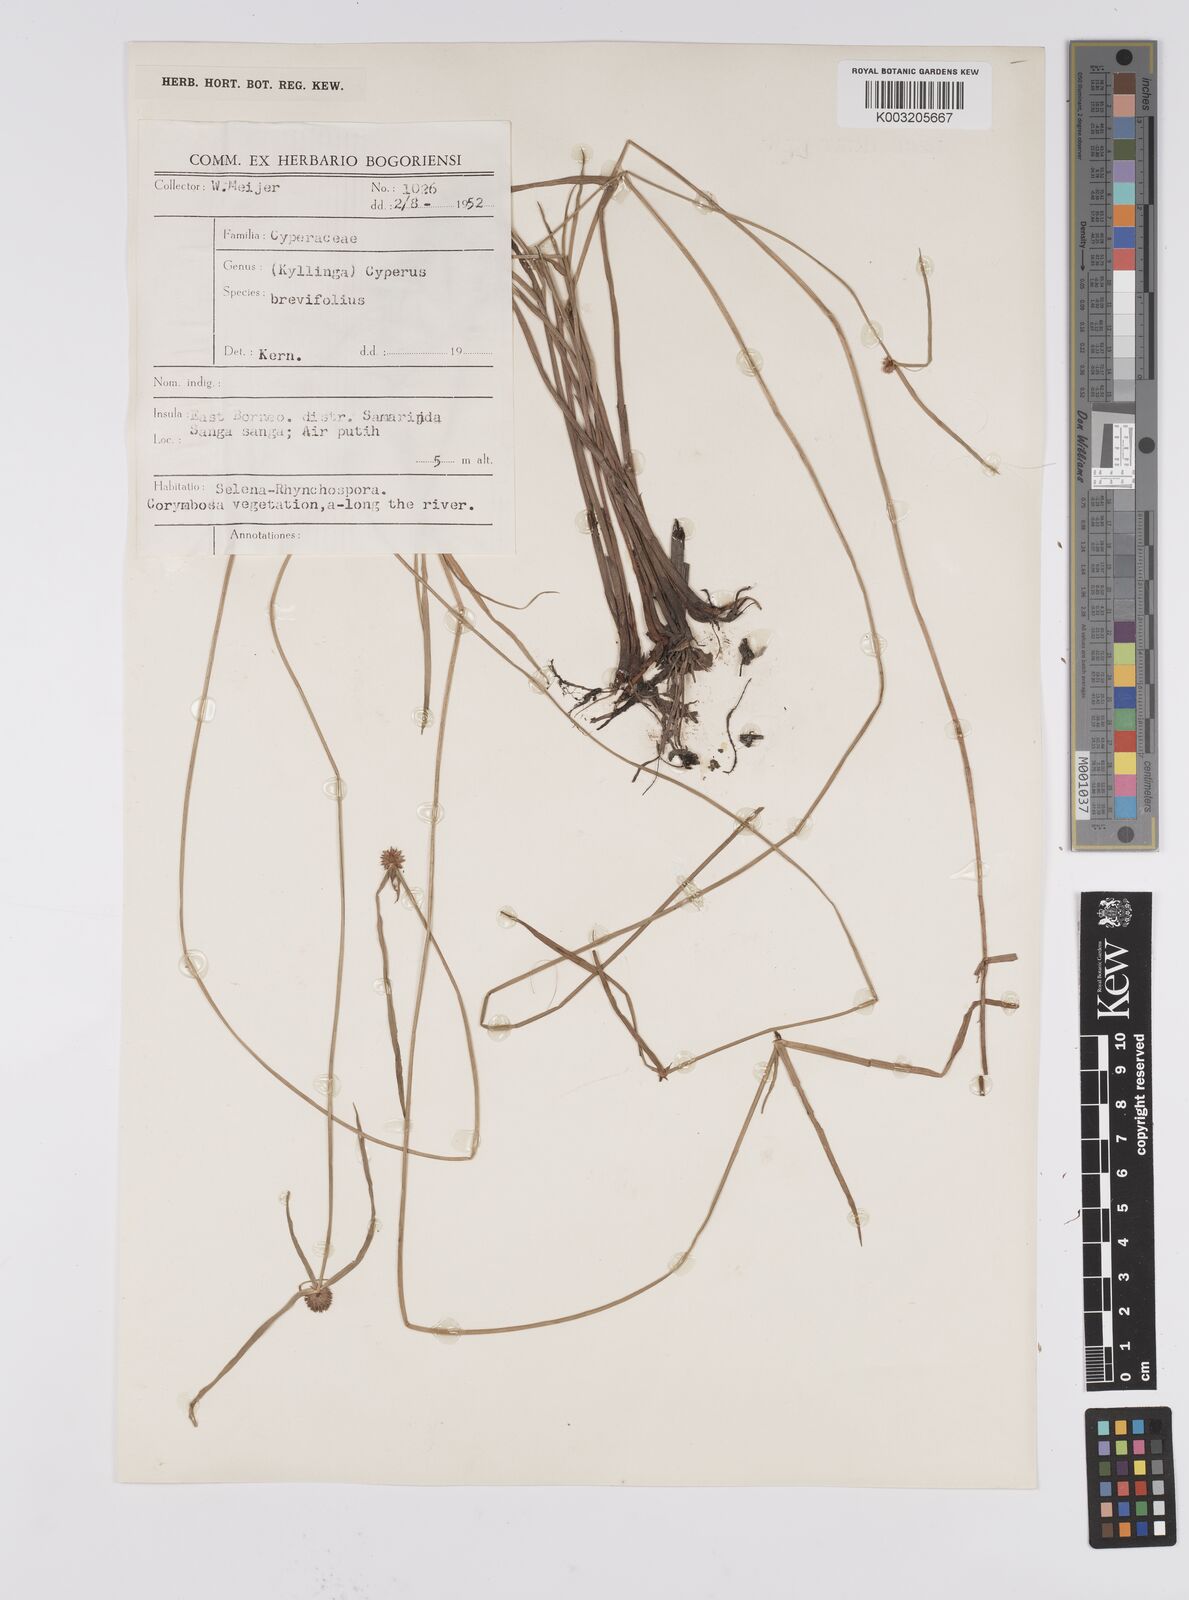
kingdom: Plantae
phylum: Tracheophyta
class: Liliopsida
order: Poales
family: Cyperaceae
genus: Cyperus
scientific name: Cyperus brevifolius
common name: Globe kyllinga
